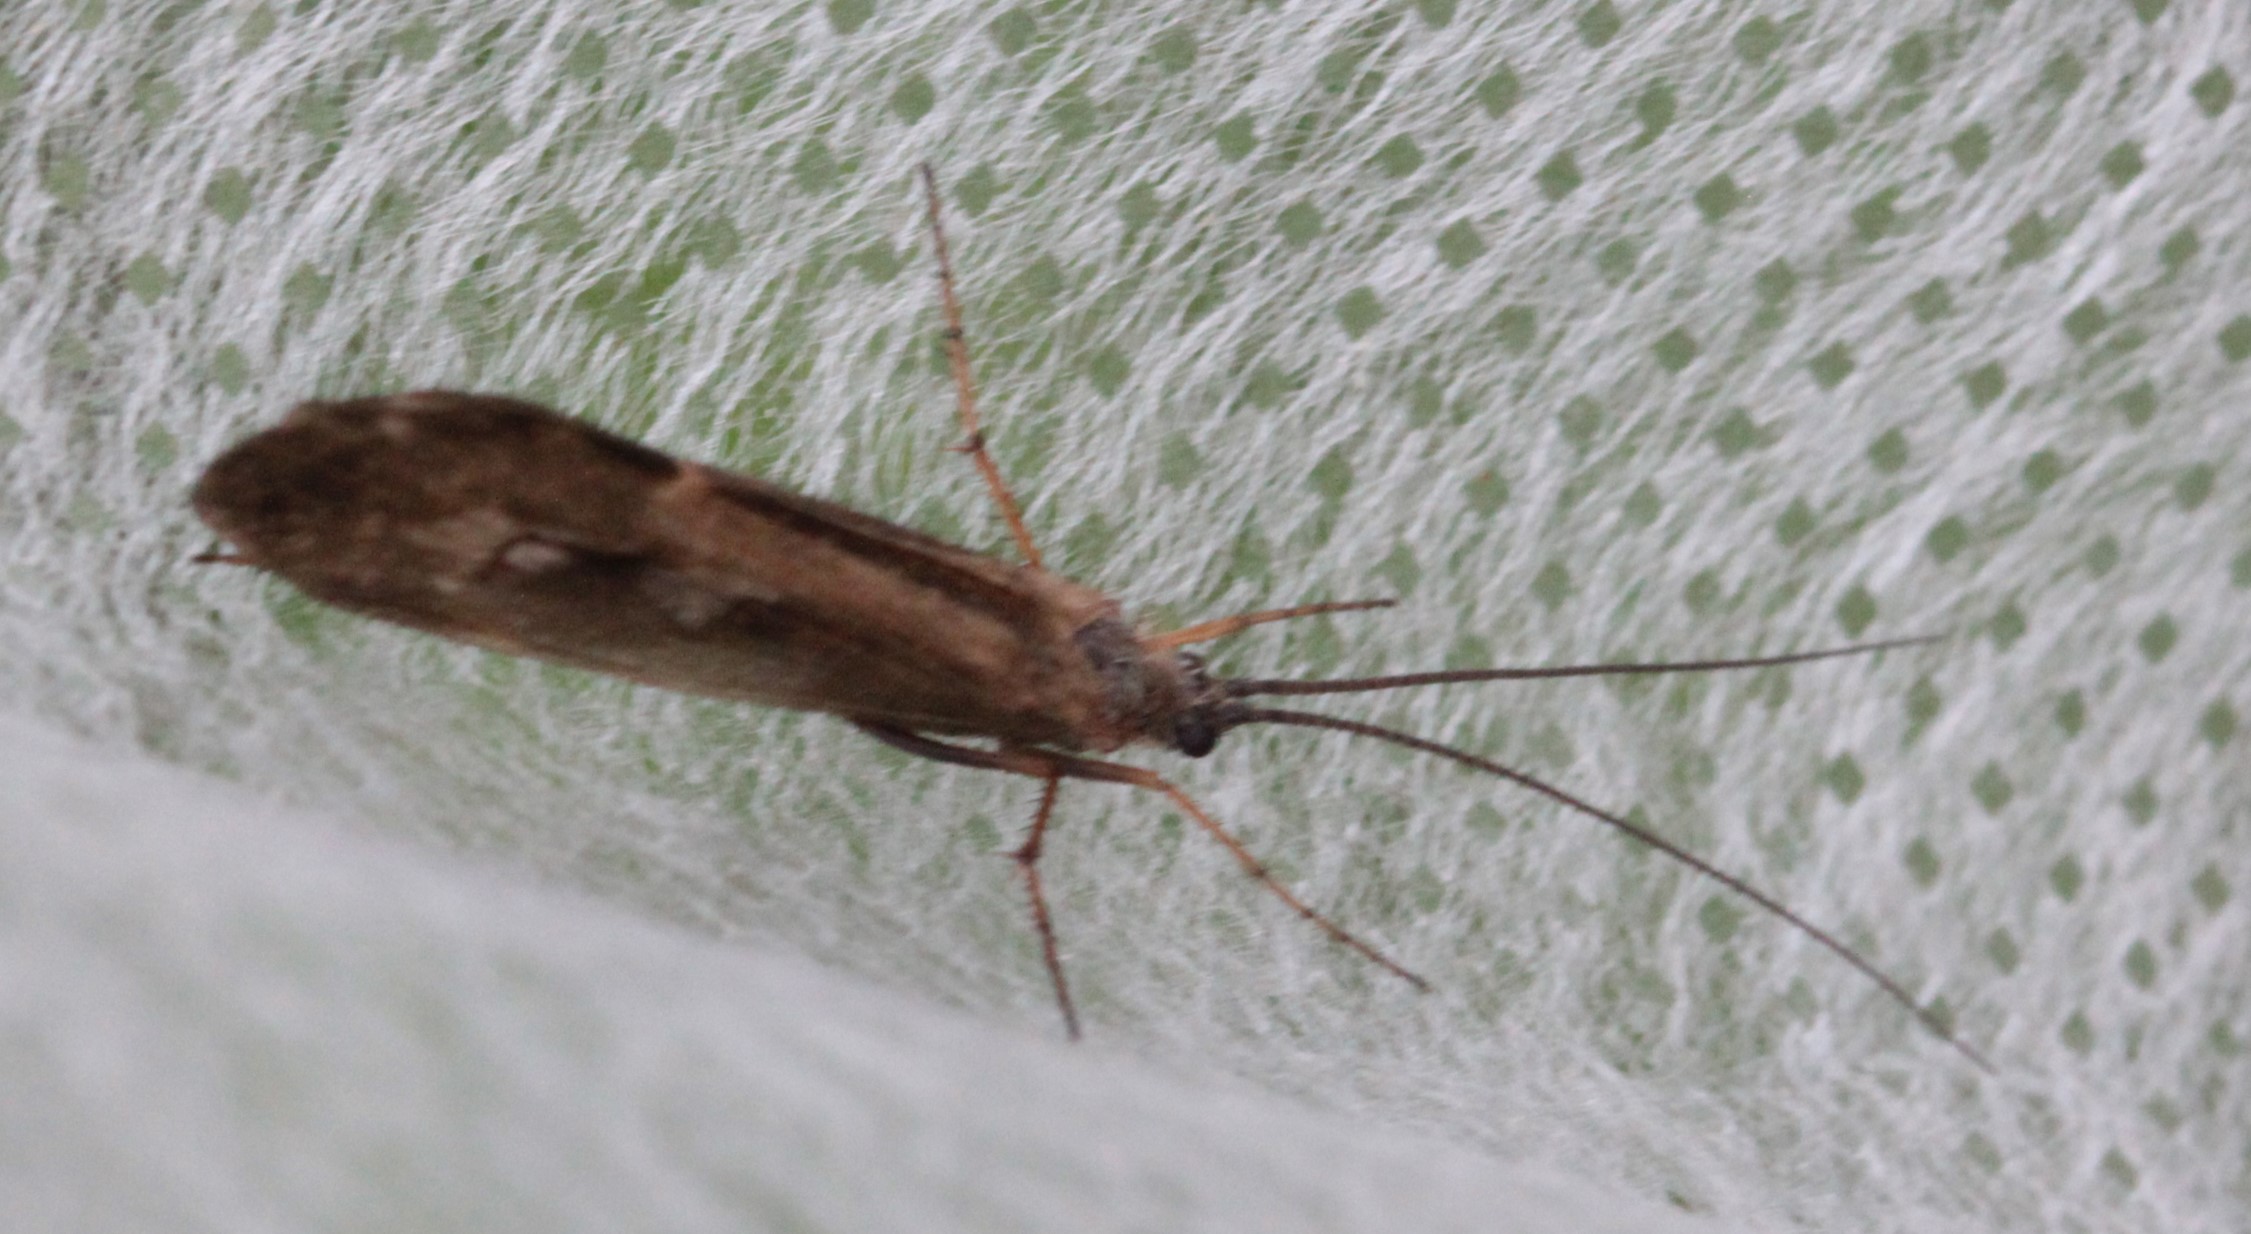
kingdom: Animalia
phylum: Arthropoda
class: Insecta
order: Trichoptera
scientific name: Trichoptera
